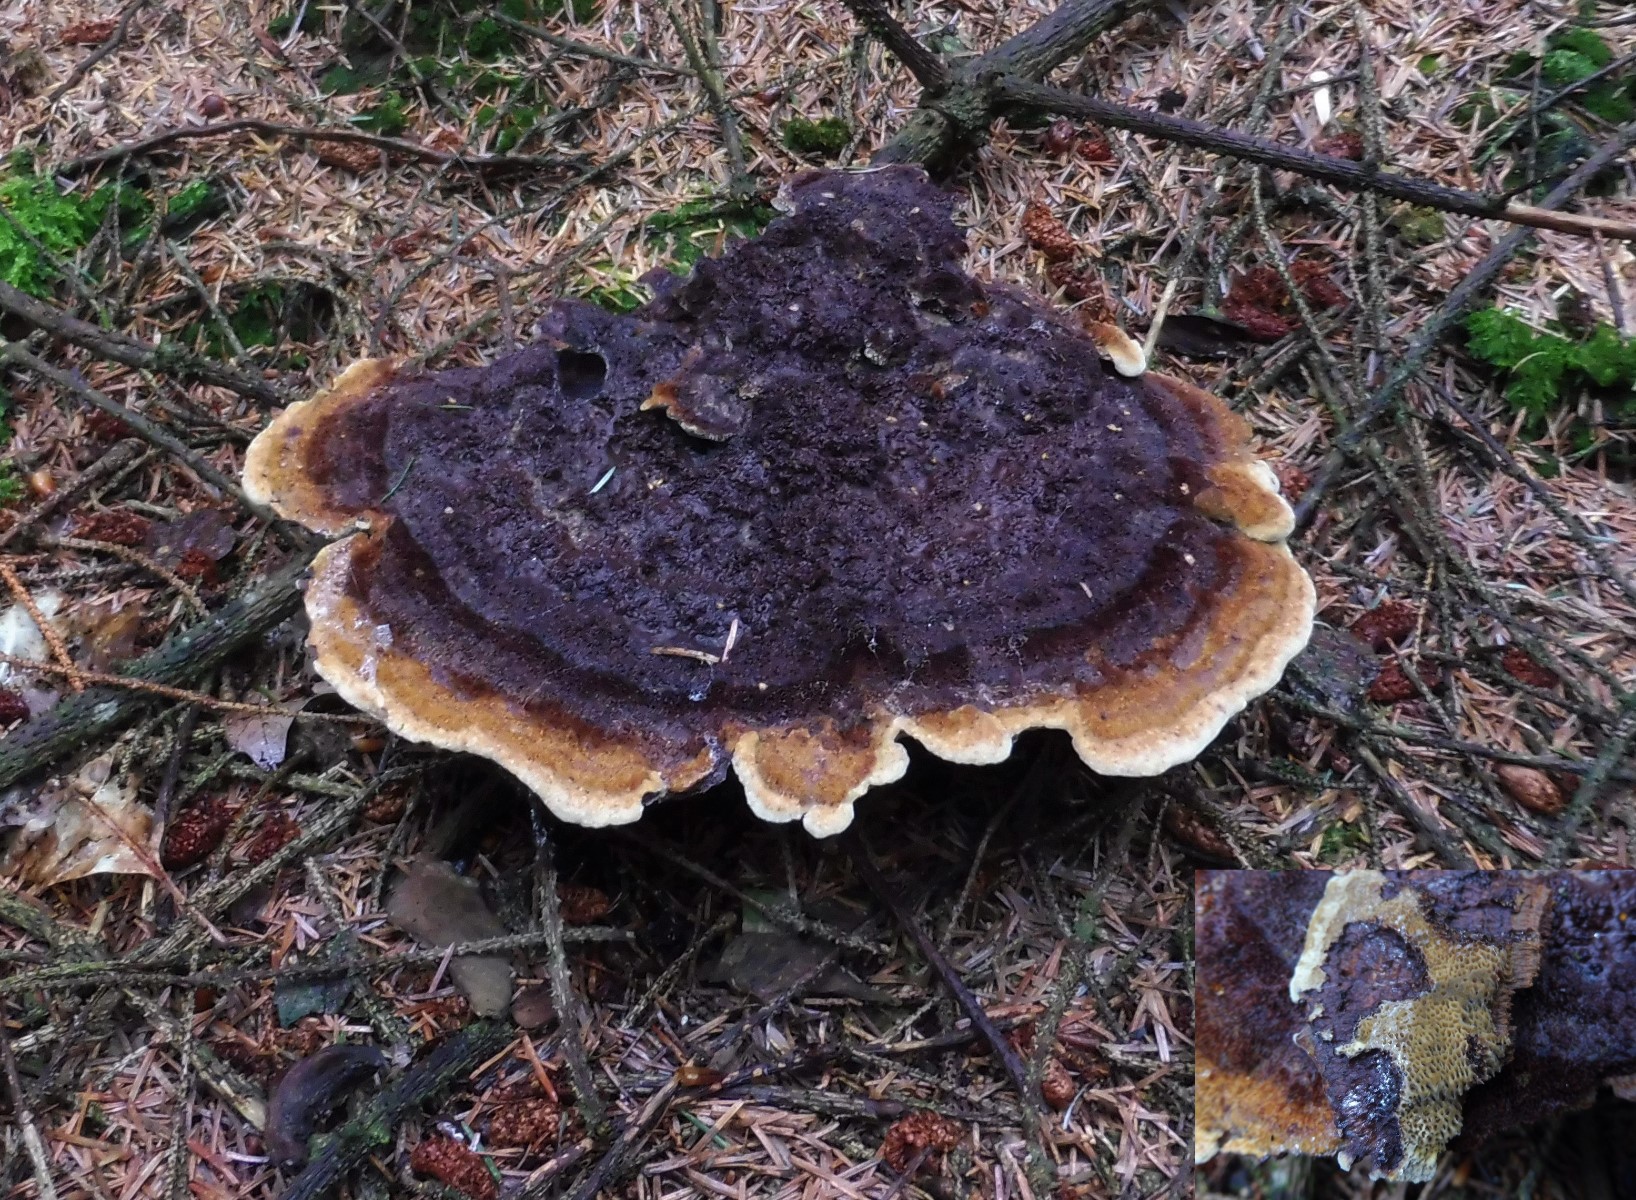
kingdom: Fungi
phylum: Basidiomycota
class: Agaricomycetes
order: Polyporales
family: Laetiporaceae
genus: Phaeolus
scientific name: Phaeolus schweinitzii
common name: brunporesvamp
